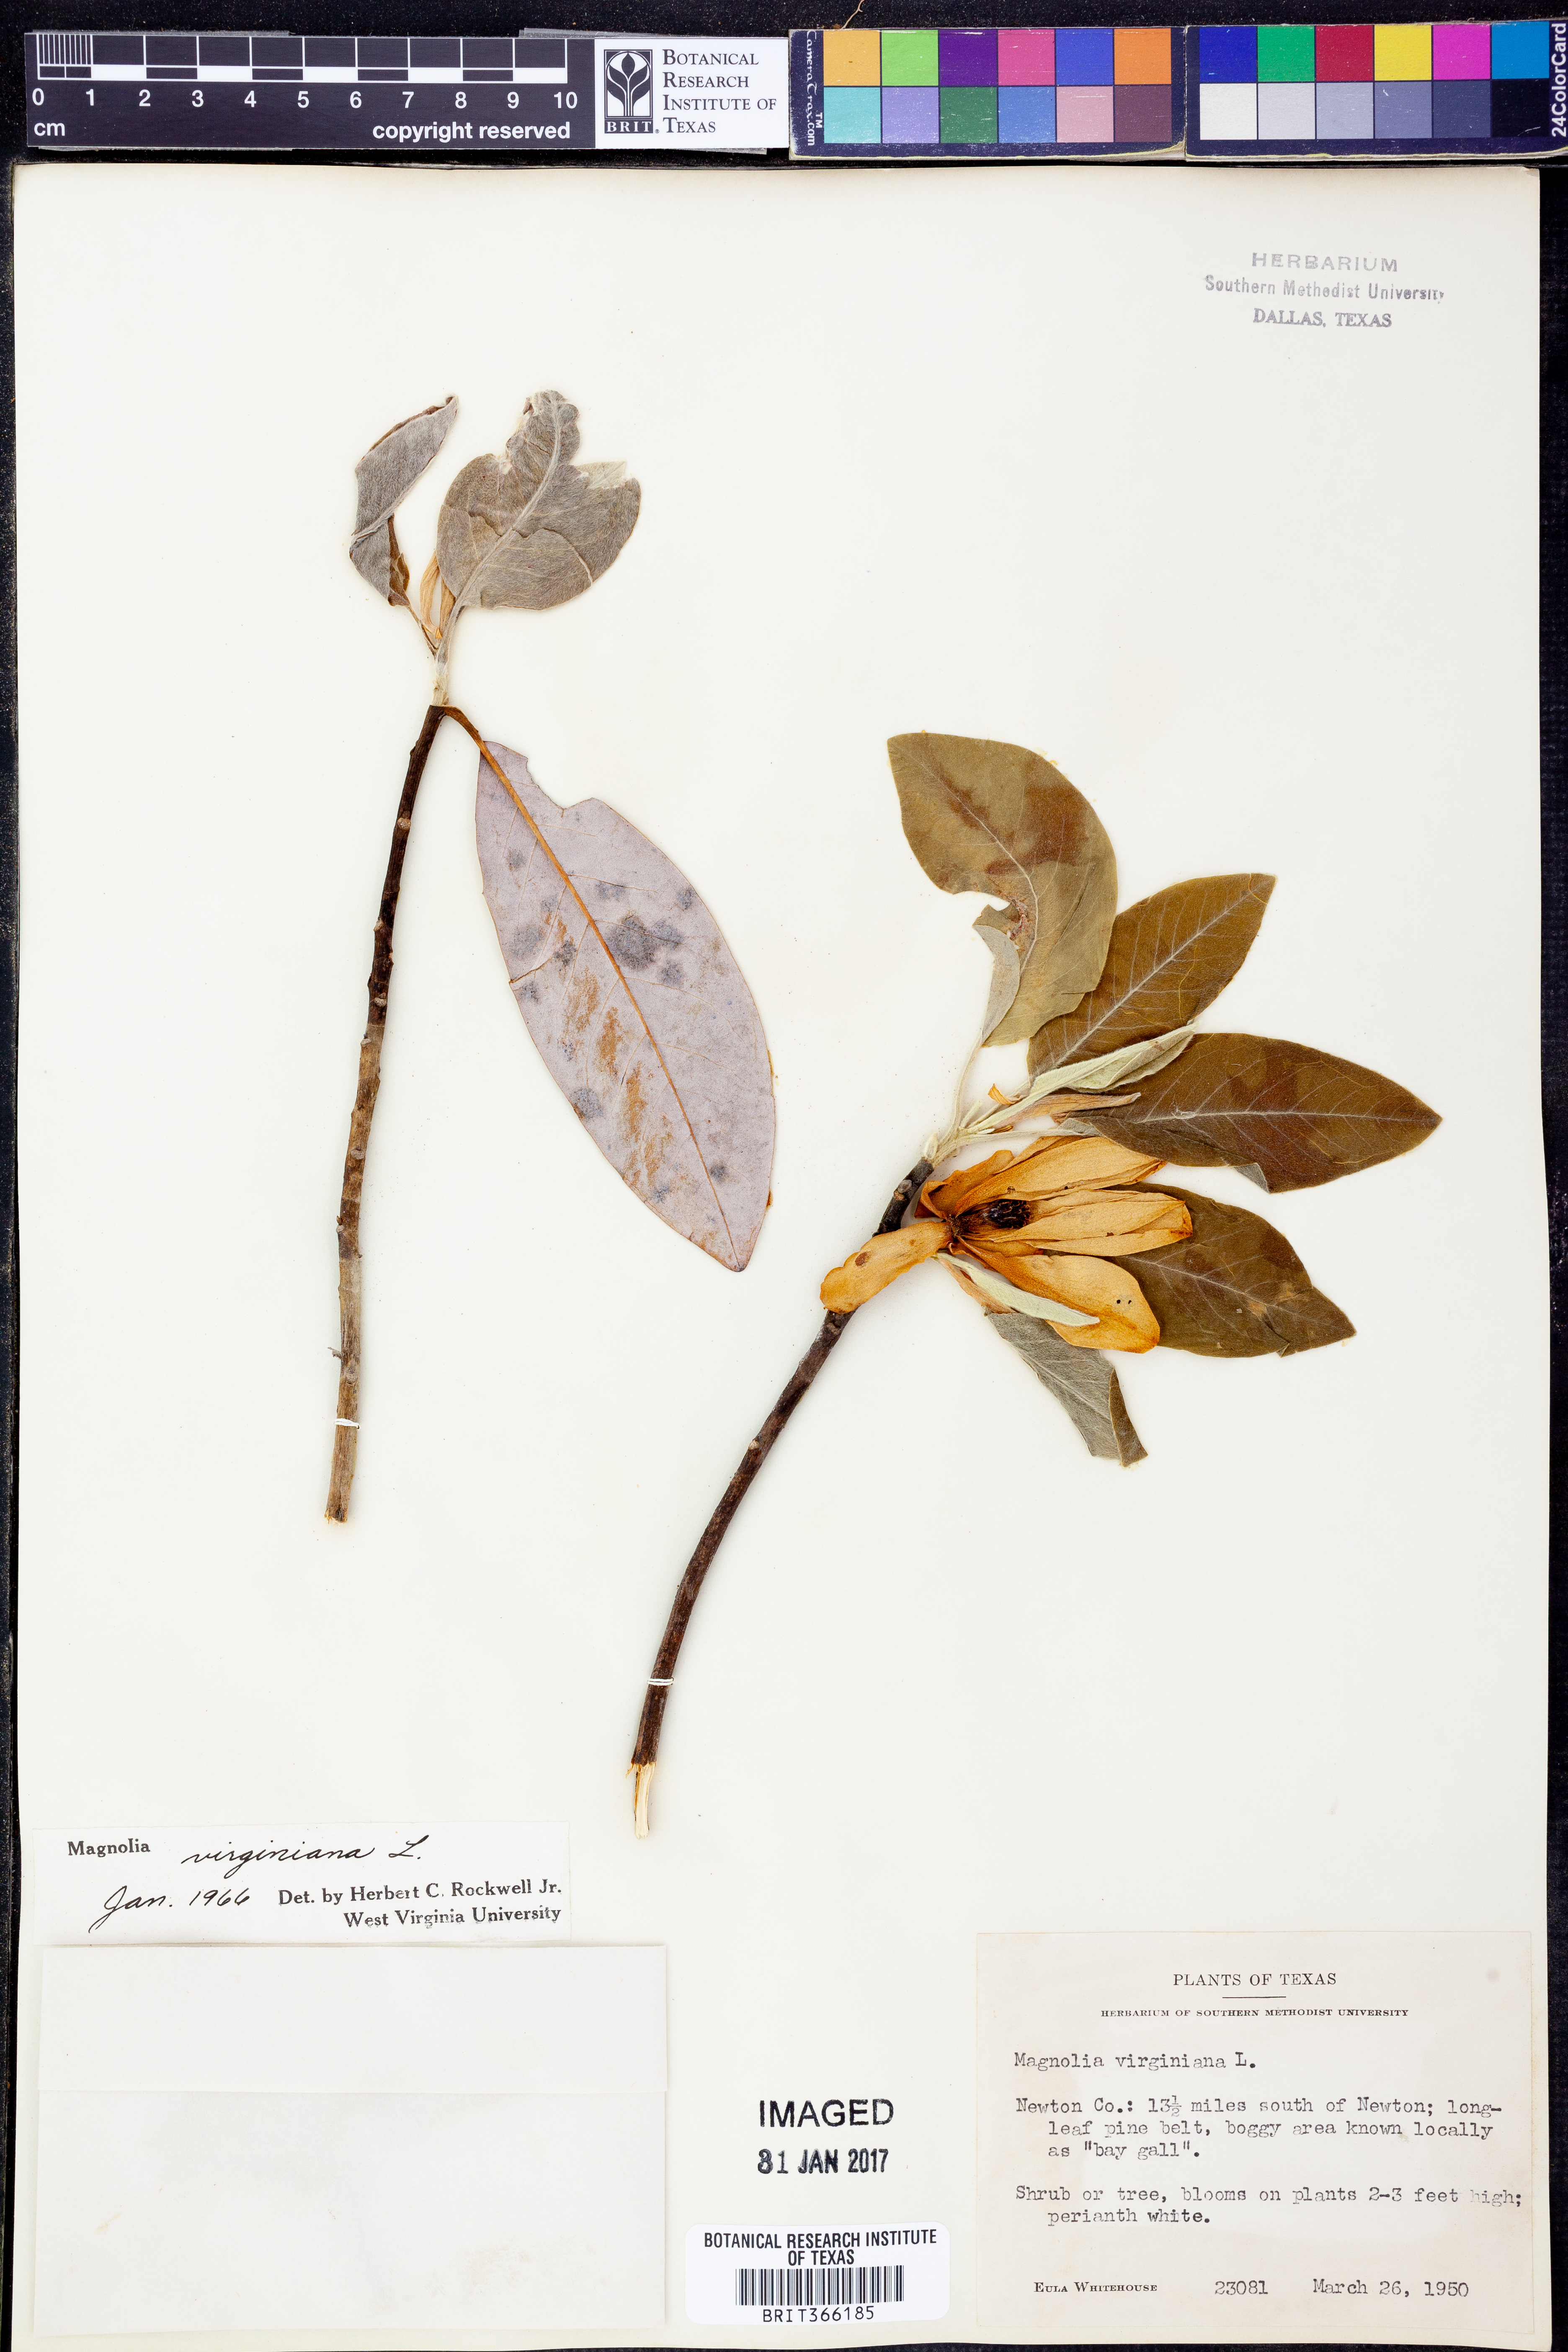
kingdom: Plantae
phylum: Tracheophyta
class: Magnoliopsida
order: Magnoliales
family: Magnoliaceae
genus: Magnolia
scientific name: Magnolia virginiana
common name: Swamp bay
